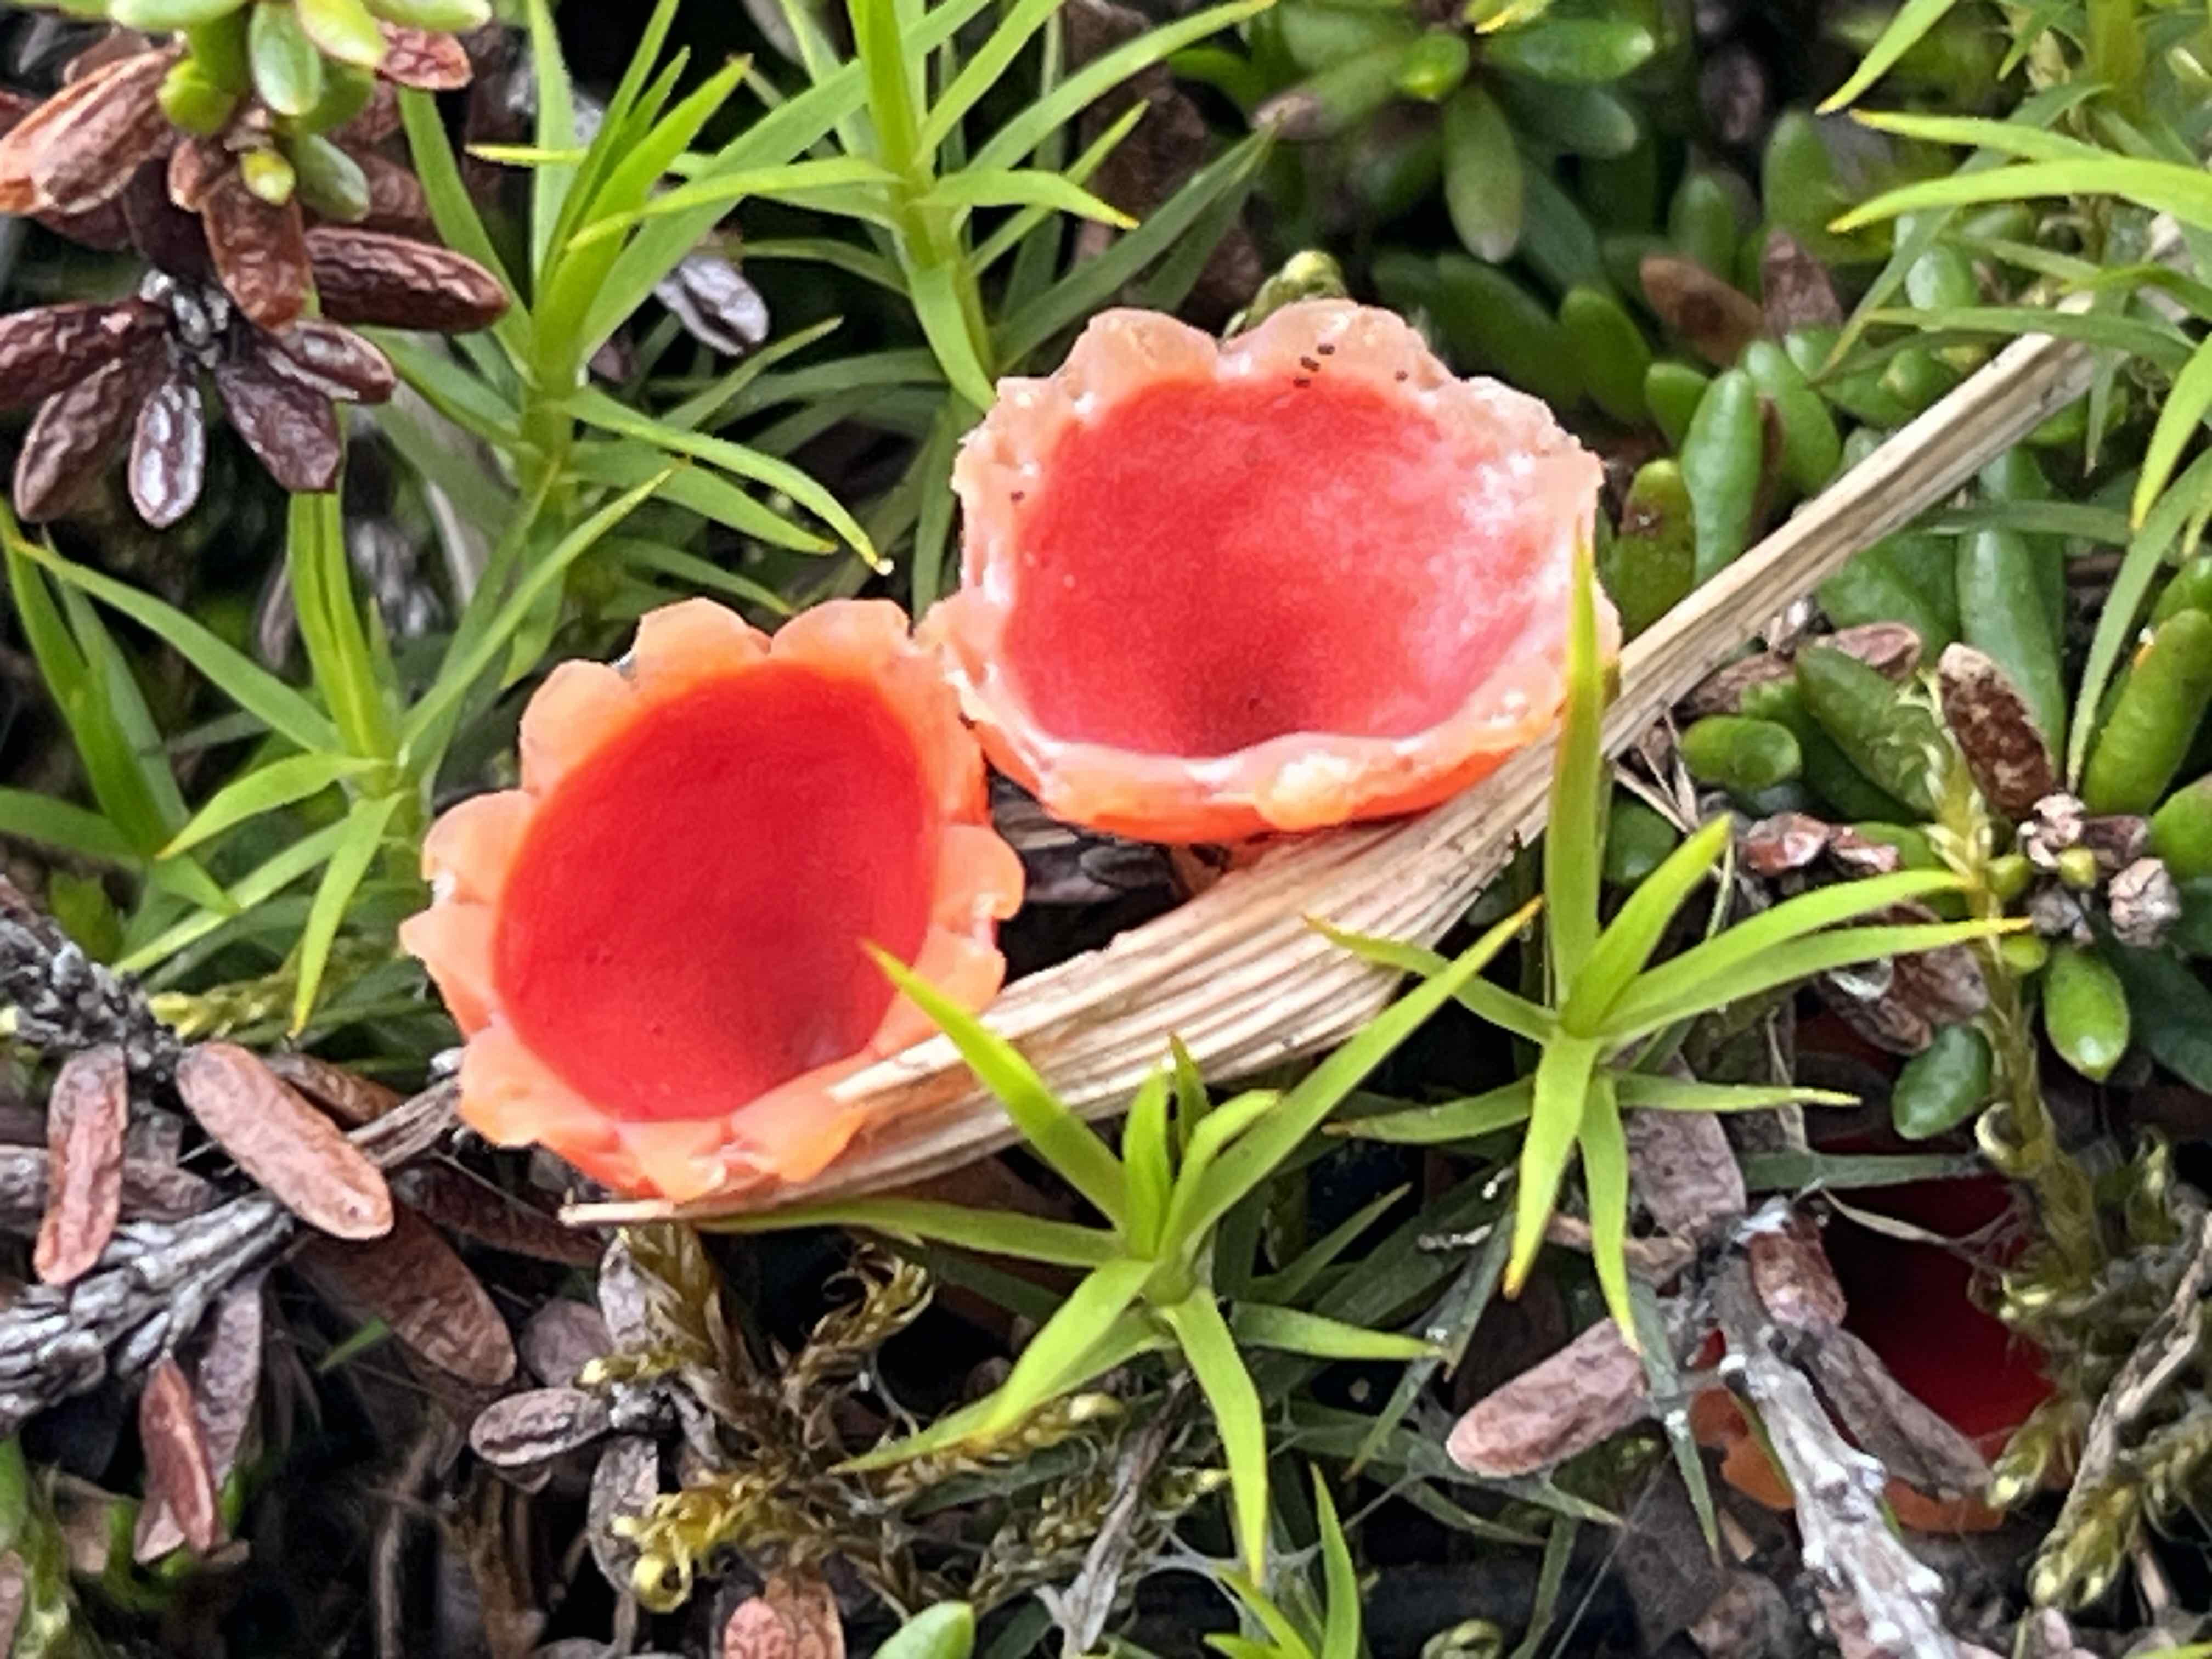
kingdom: Fungi
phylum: Ascomycota
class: Pezizomycetes
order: Pezizales
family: Sarcoscyphaceae
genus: Microstoma
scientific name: Microstoma protractum
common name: knippebæger
